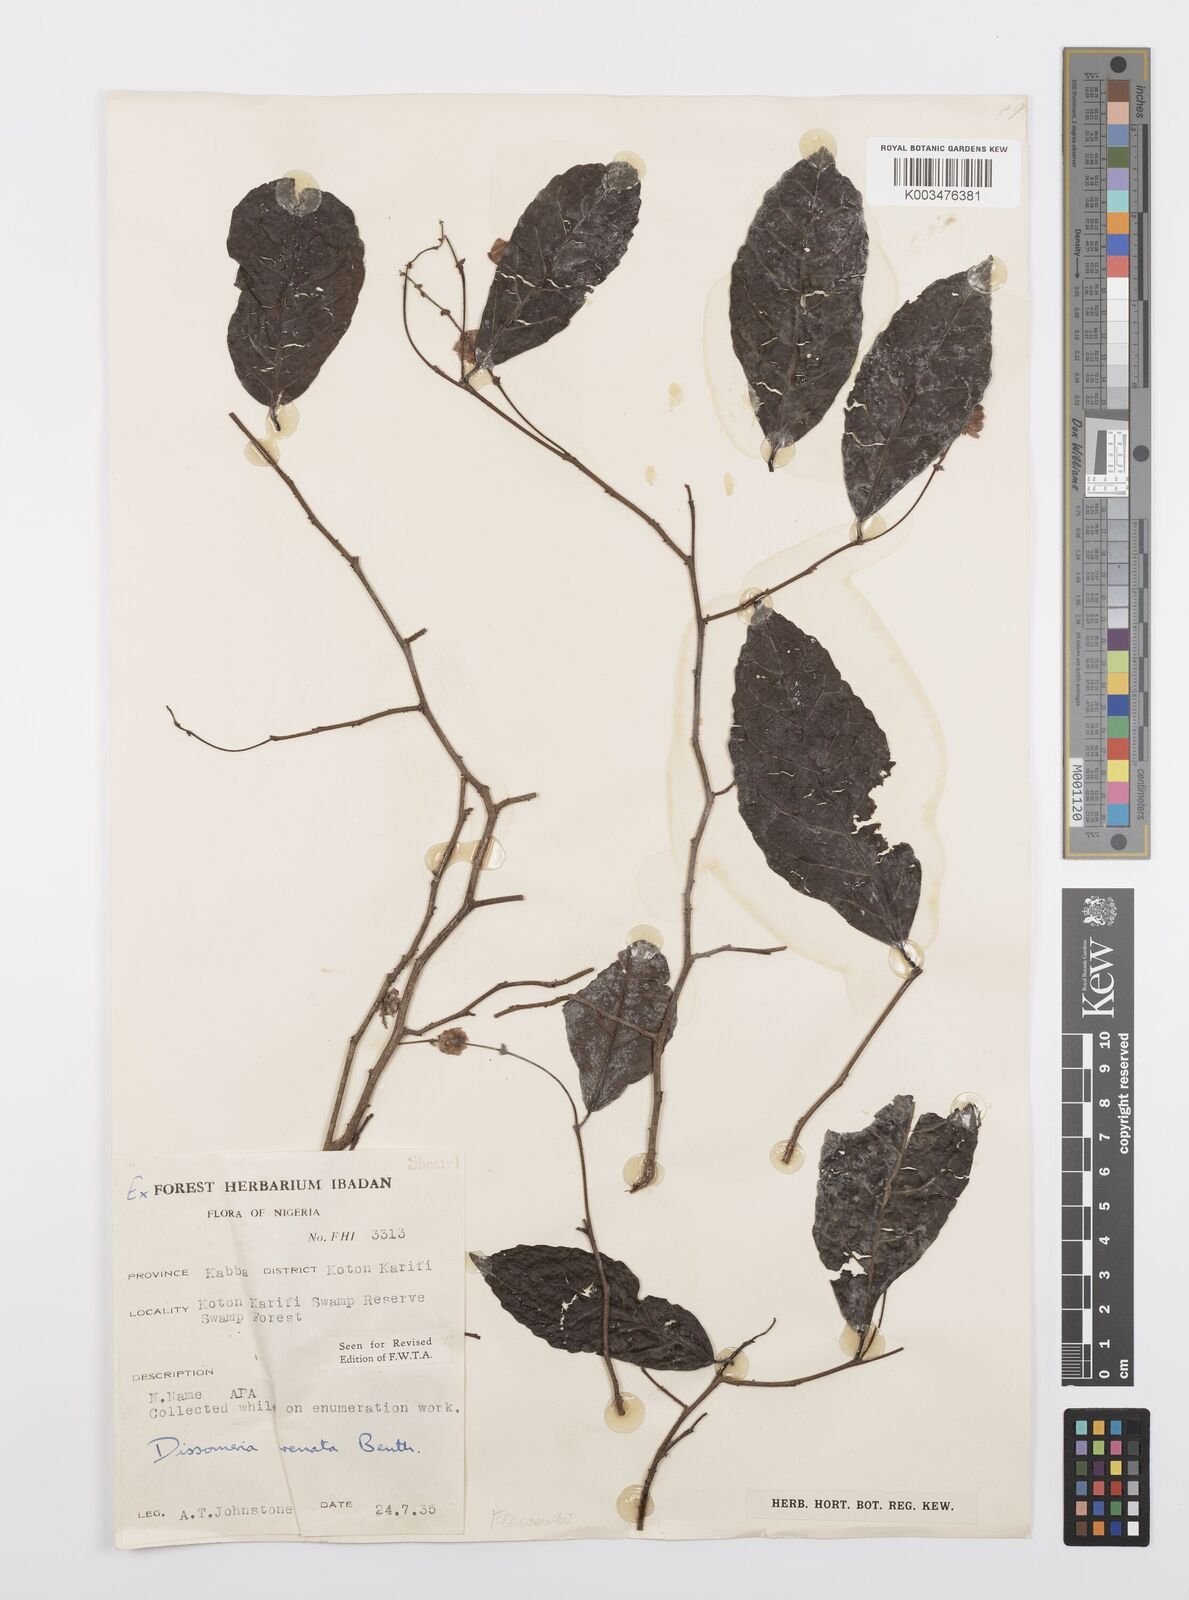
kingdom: Plantae
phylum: Tracheophyta
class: Magnoliopsida
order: Malpighiales
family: Salicaceae
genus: Dissomeria
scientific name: Dissomeria crenata
